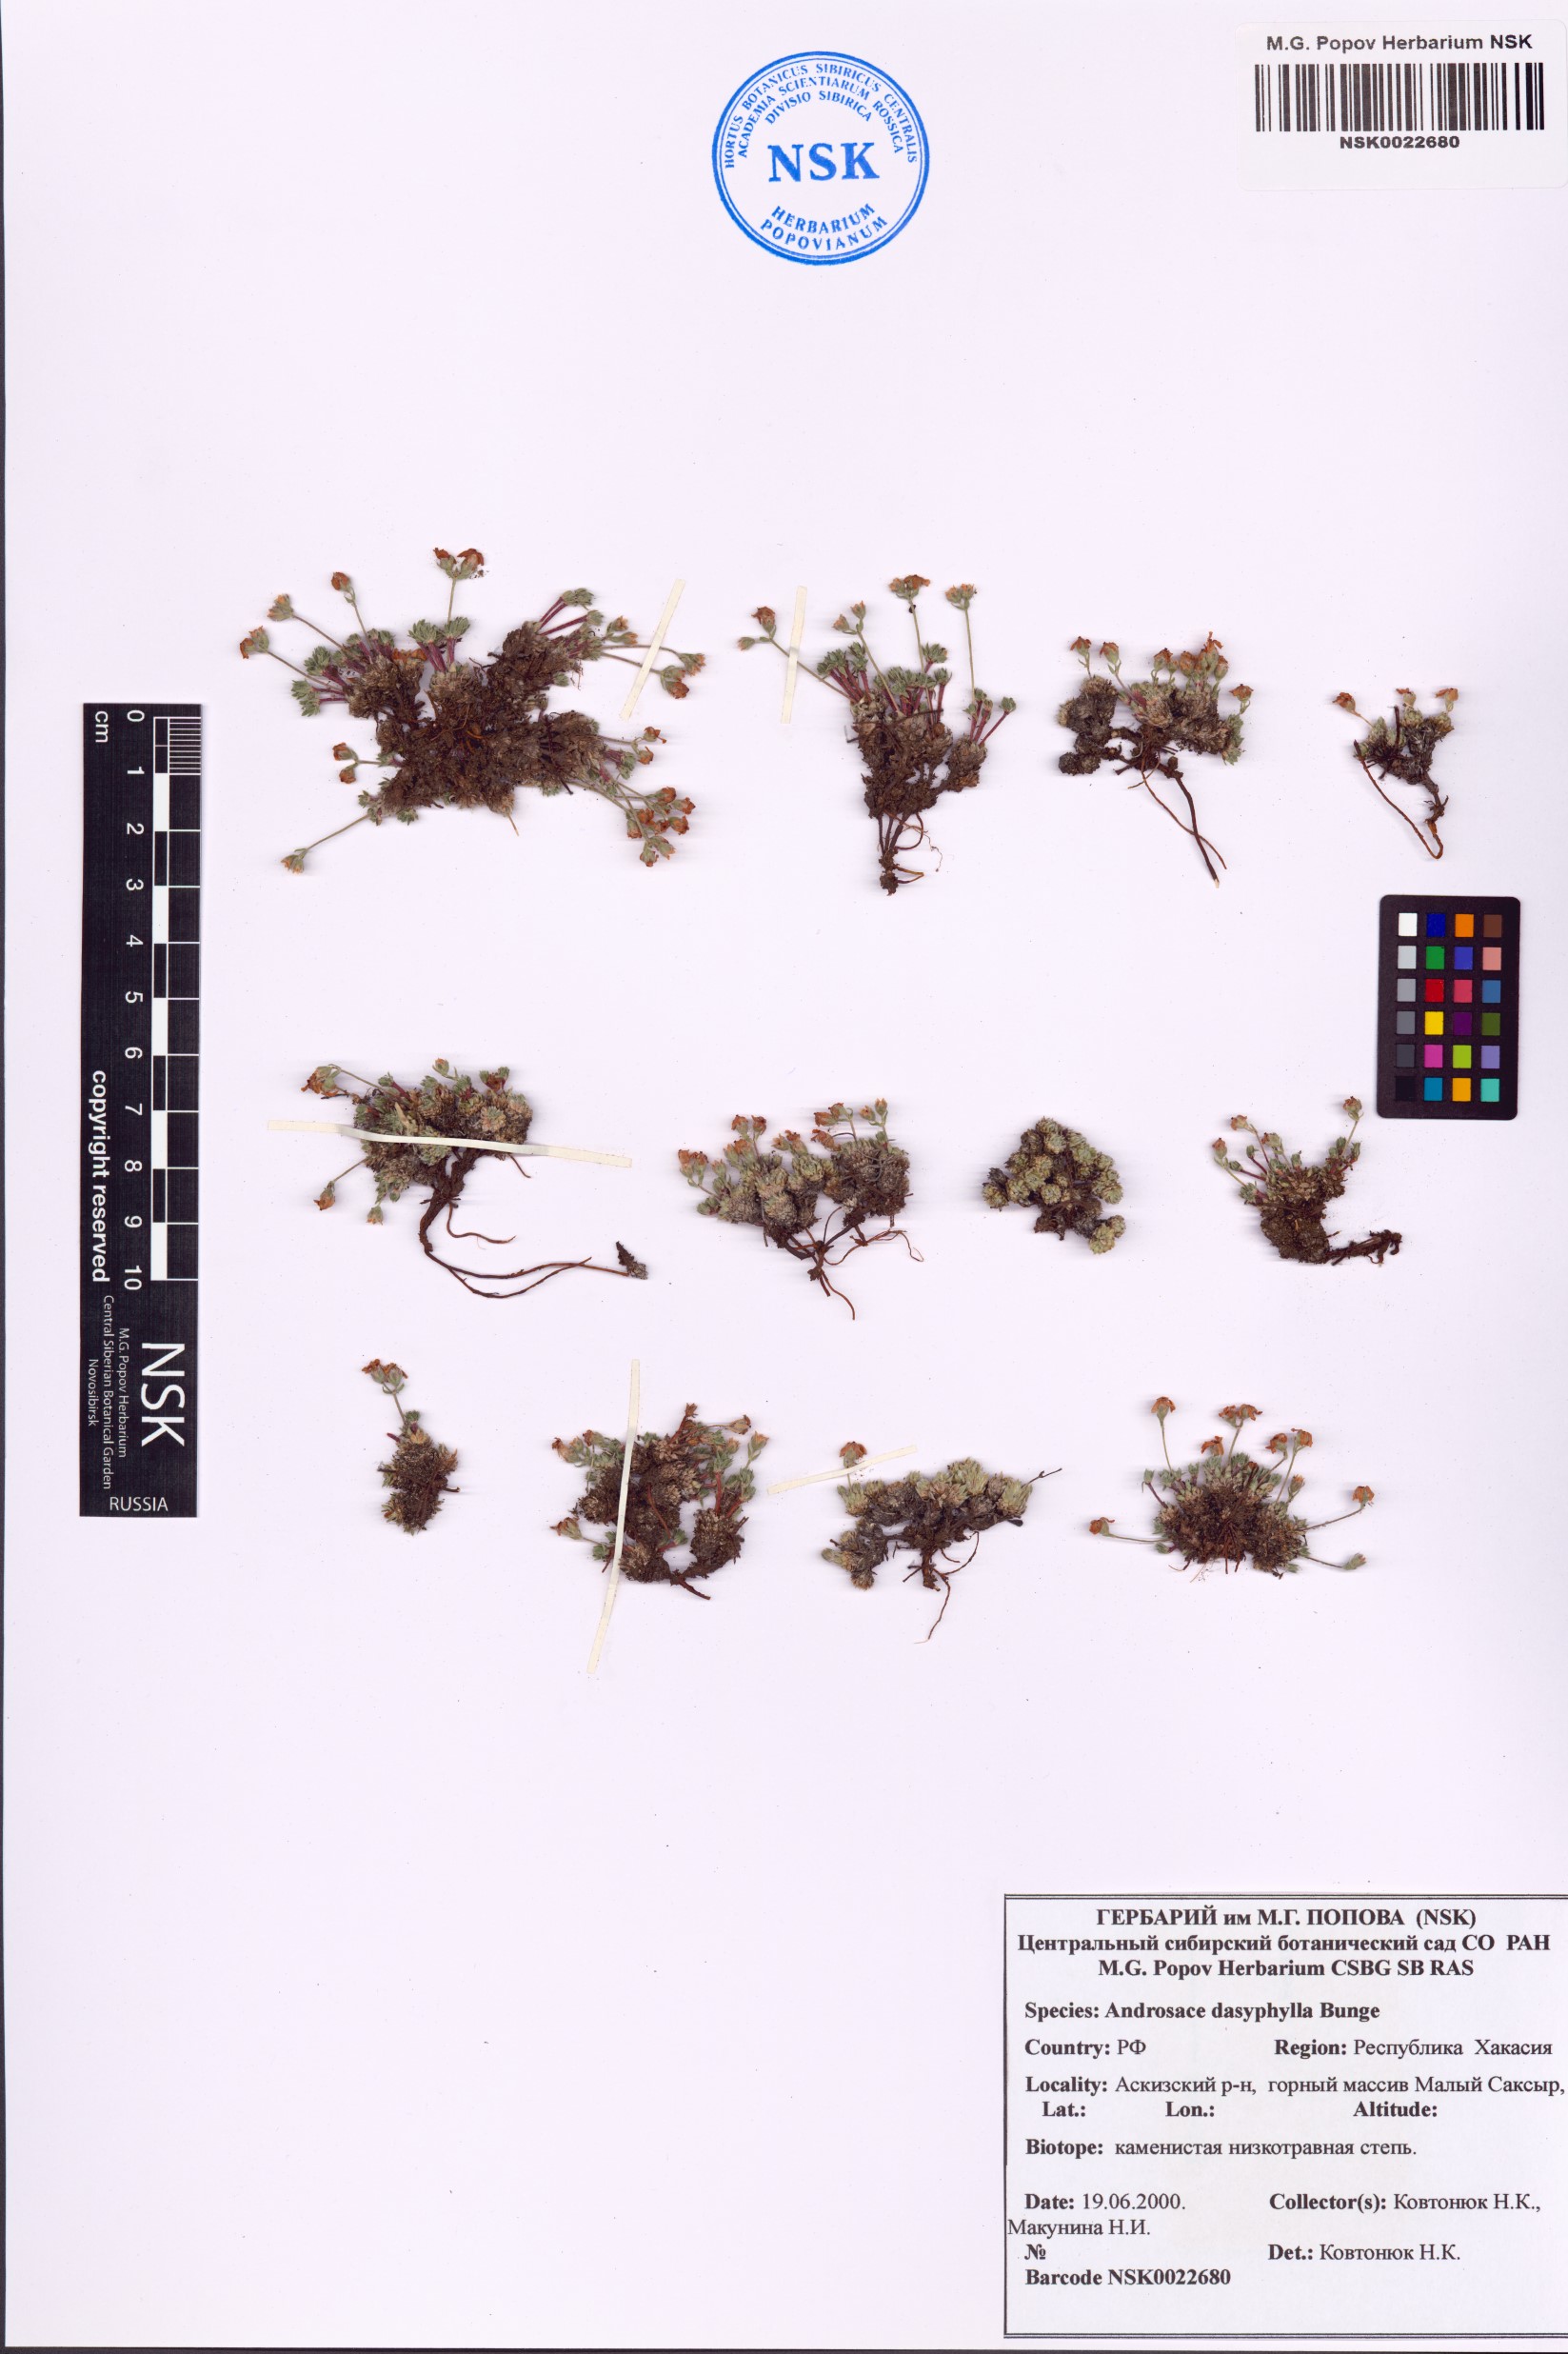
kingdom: Plantae
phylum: Tracheophyta
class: Magnoliopsida
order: Ericales
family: Primulaceae
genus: Androsace
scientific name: Androsace dasyphylla
